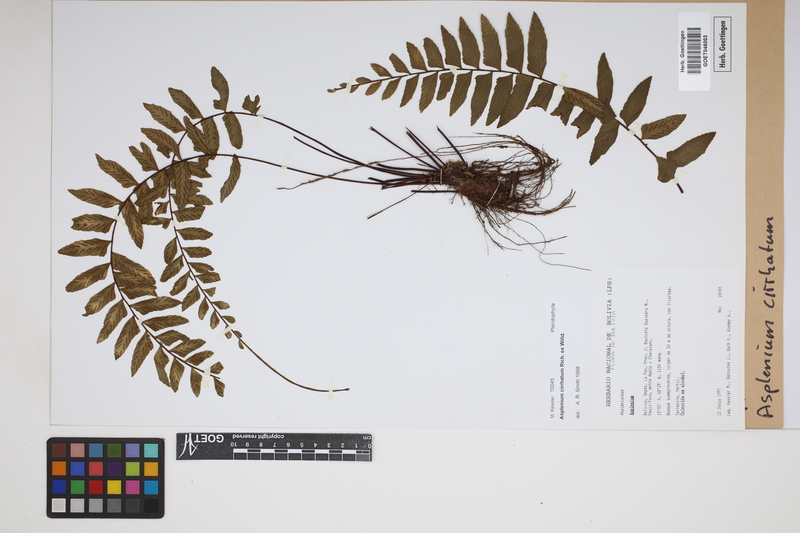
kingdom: Plantae
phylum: Tracheophyta
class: Polypodiopsida
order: Polypodiales
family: Aspleniaceae
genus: Asplenium
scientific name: Asplenium cirrhatum
